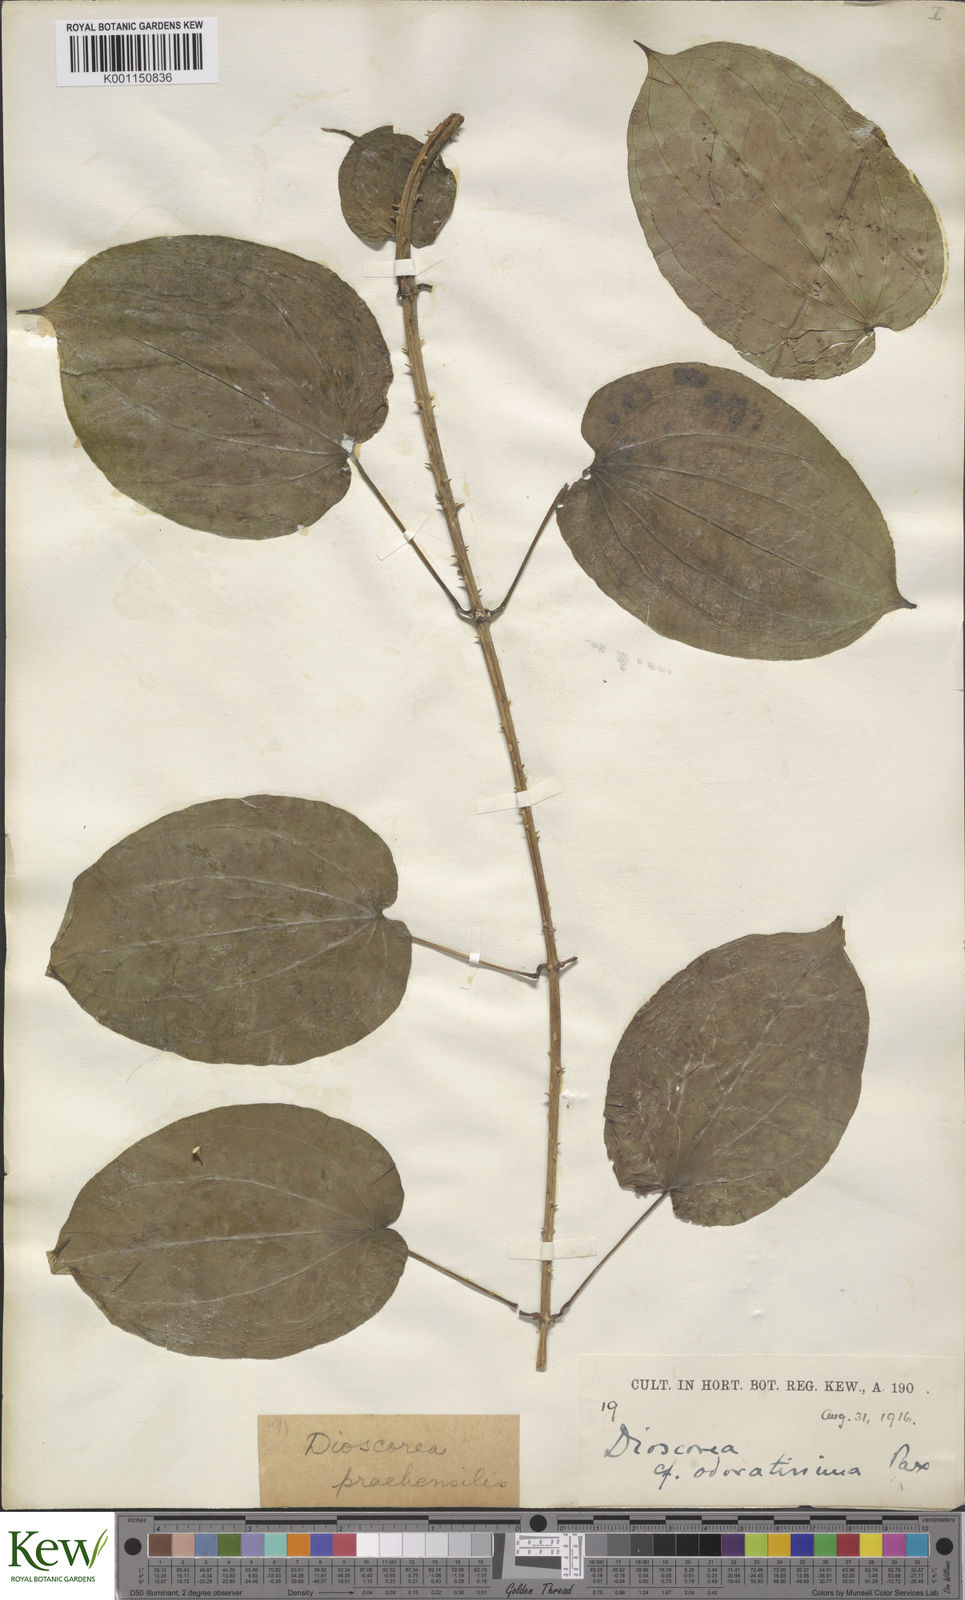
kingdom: Plantae
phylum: Tracheophyta
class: Liliopsida
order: Dioscoreales
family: Dioscoreaceae
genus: Dioscorea
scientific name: Dioscorea praehensilis
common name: Bush yam
